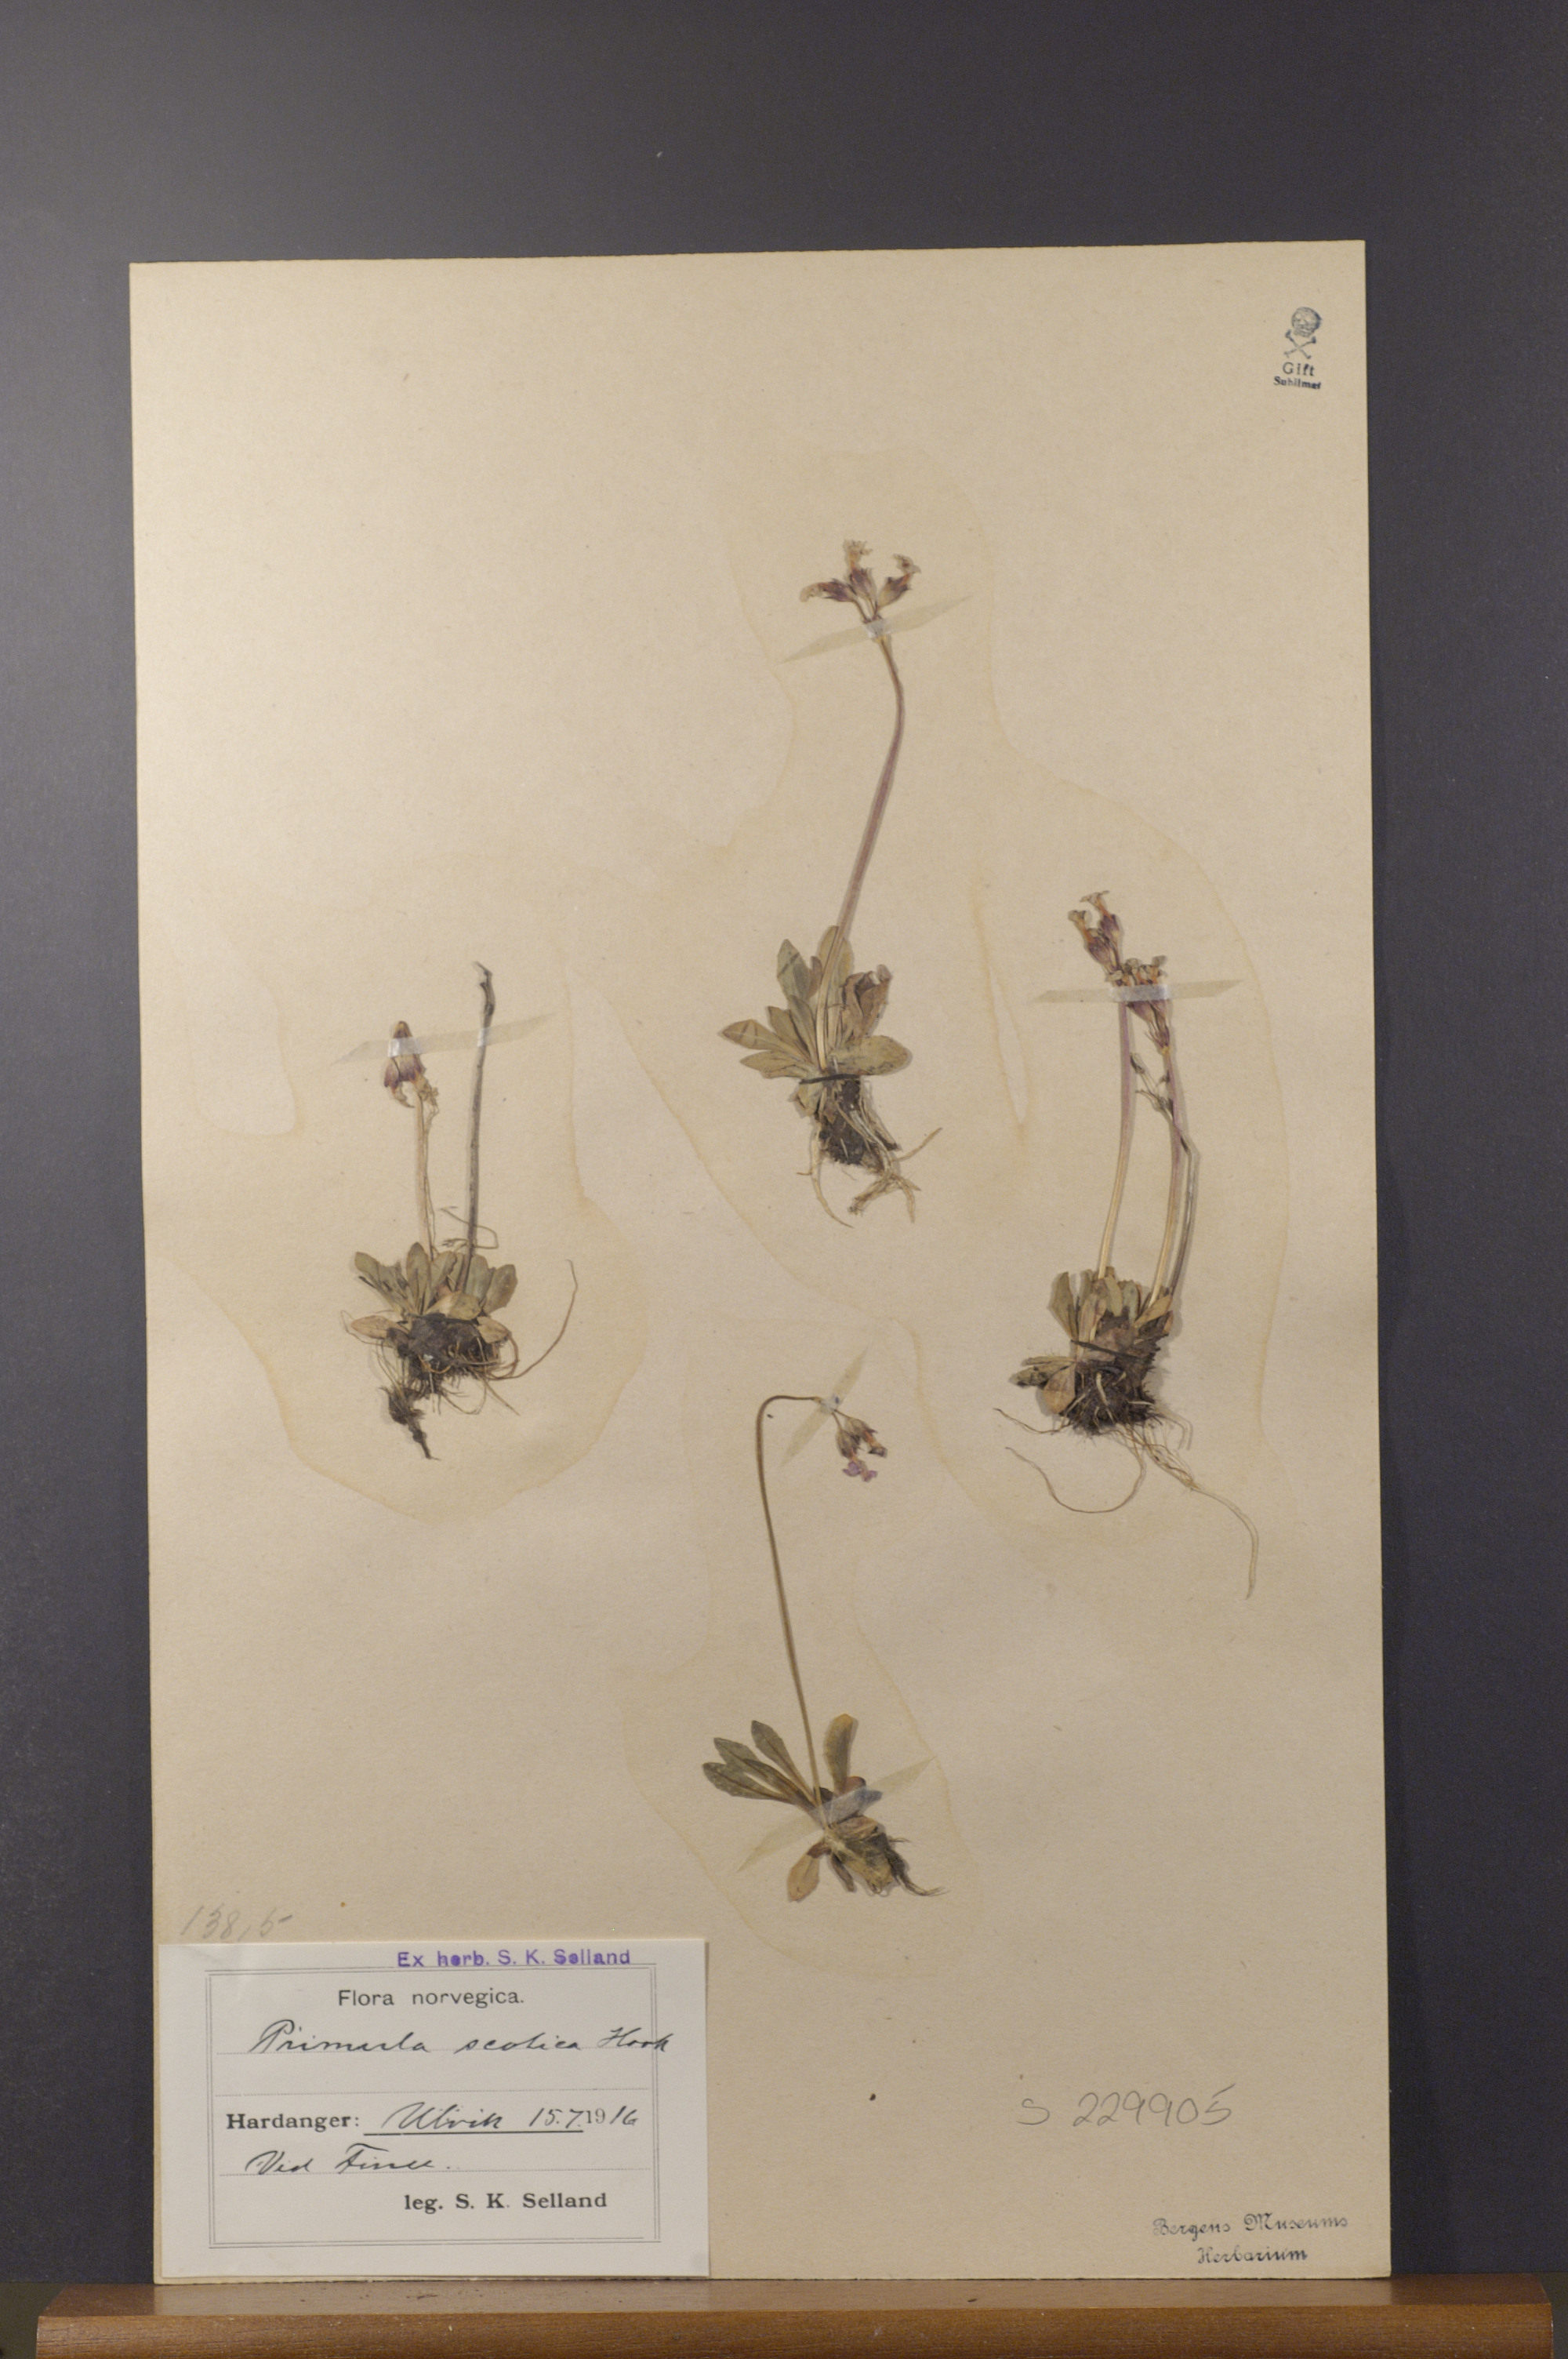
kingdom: Plantae
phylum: Tracheophyta
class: Magnoliopsida
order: Ericales
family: Primulaceae
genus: Primula
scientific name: Primula scotica
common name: Scottish primrose
